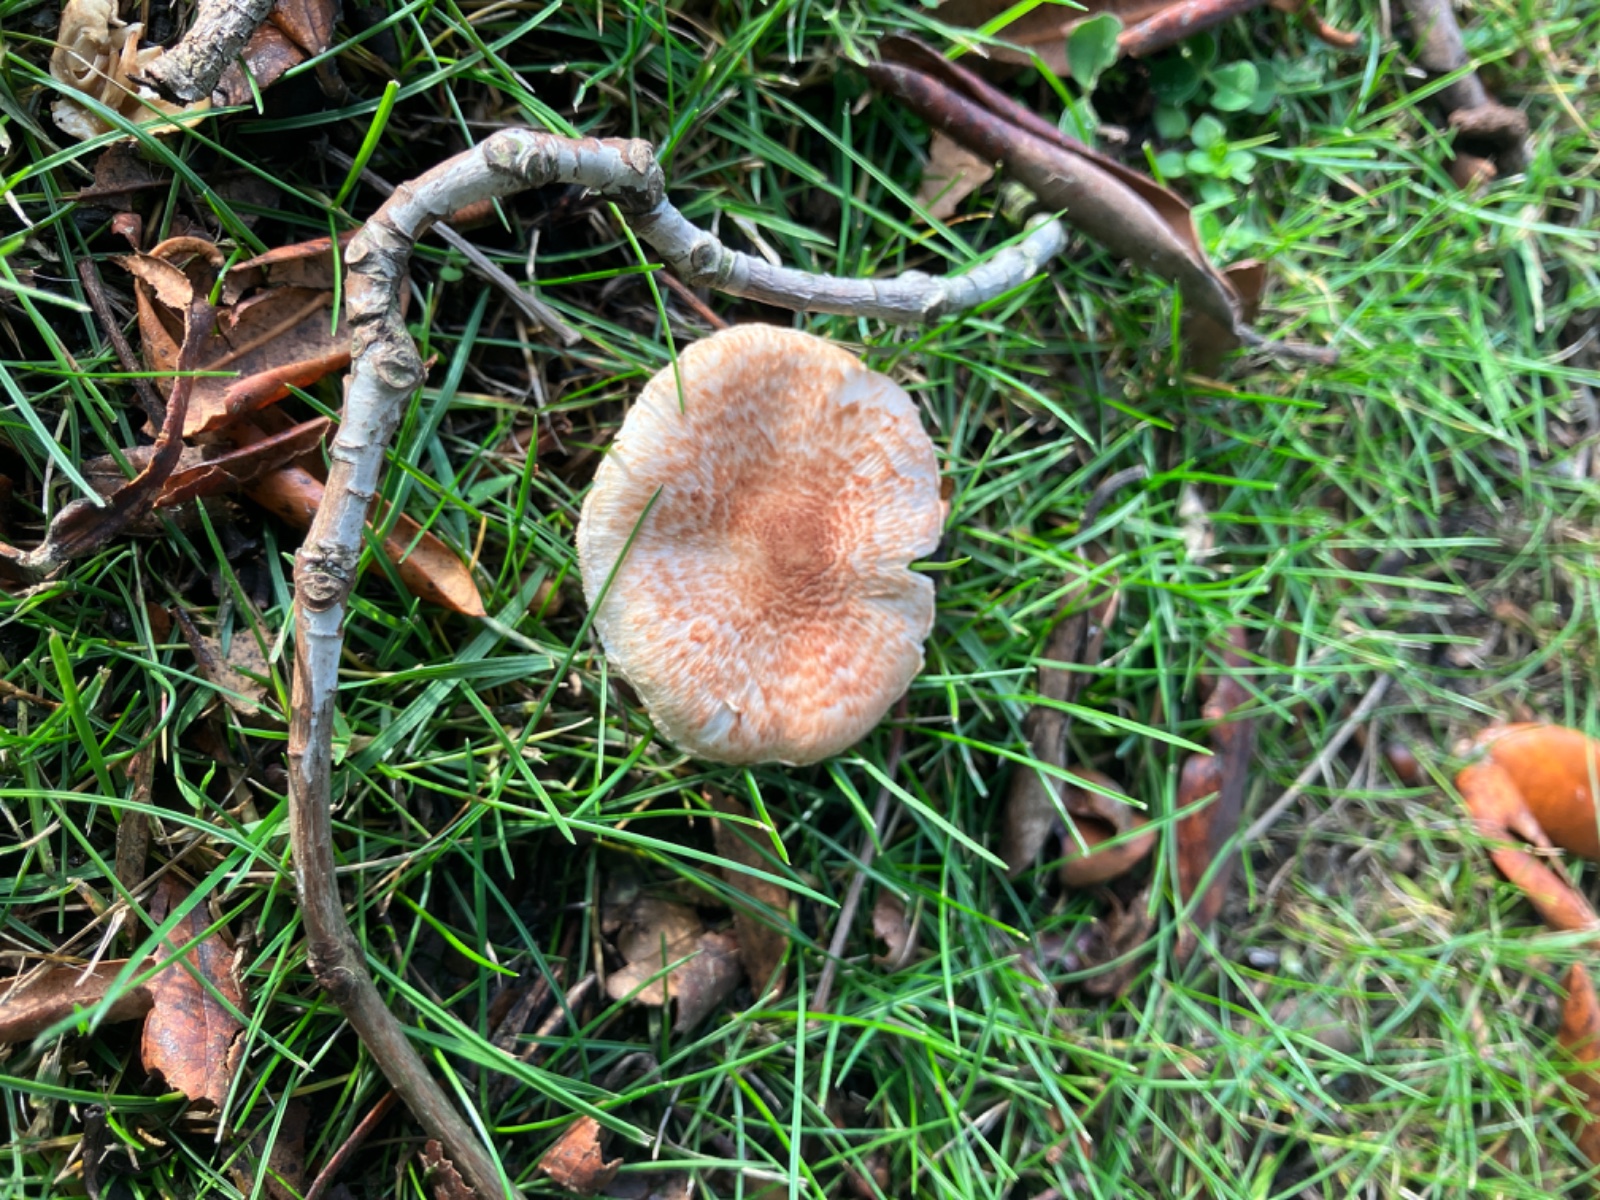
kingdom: Fungi
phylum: Basidiomycota
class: Agaricomycetes
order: Agaricales
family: Agaricaceae
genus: Lepiota
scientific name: Lepiota subincarnata
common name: kødfarvet parasolhat
